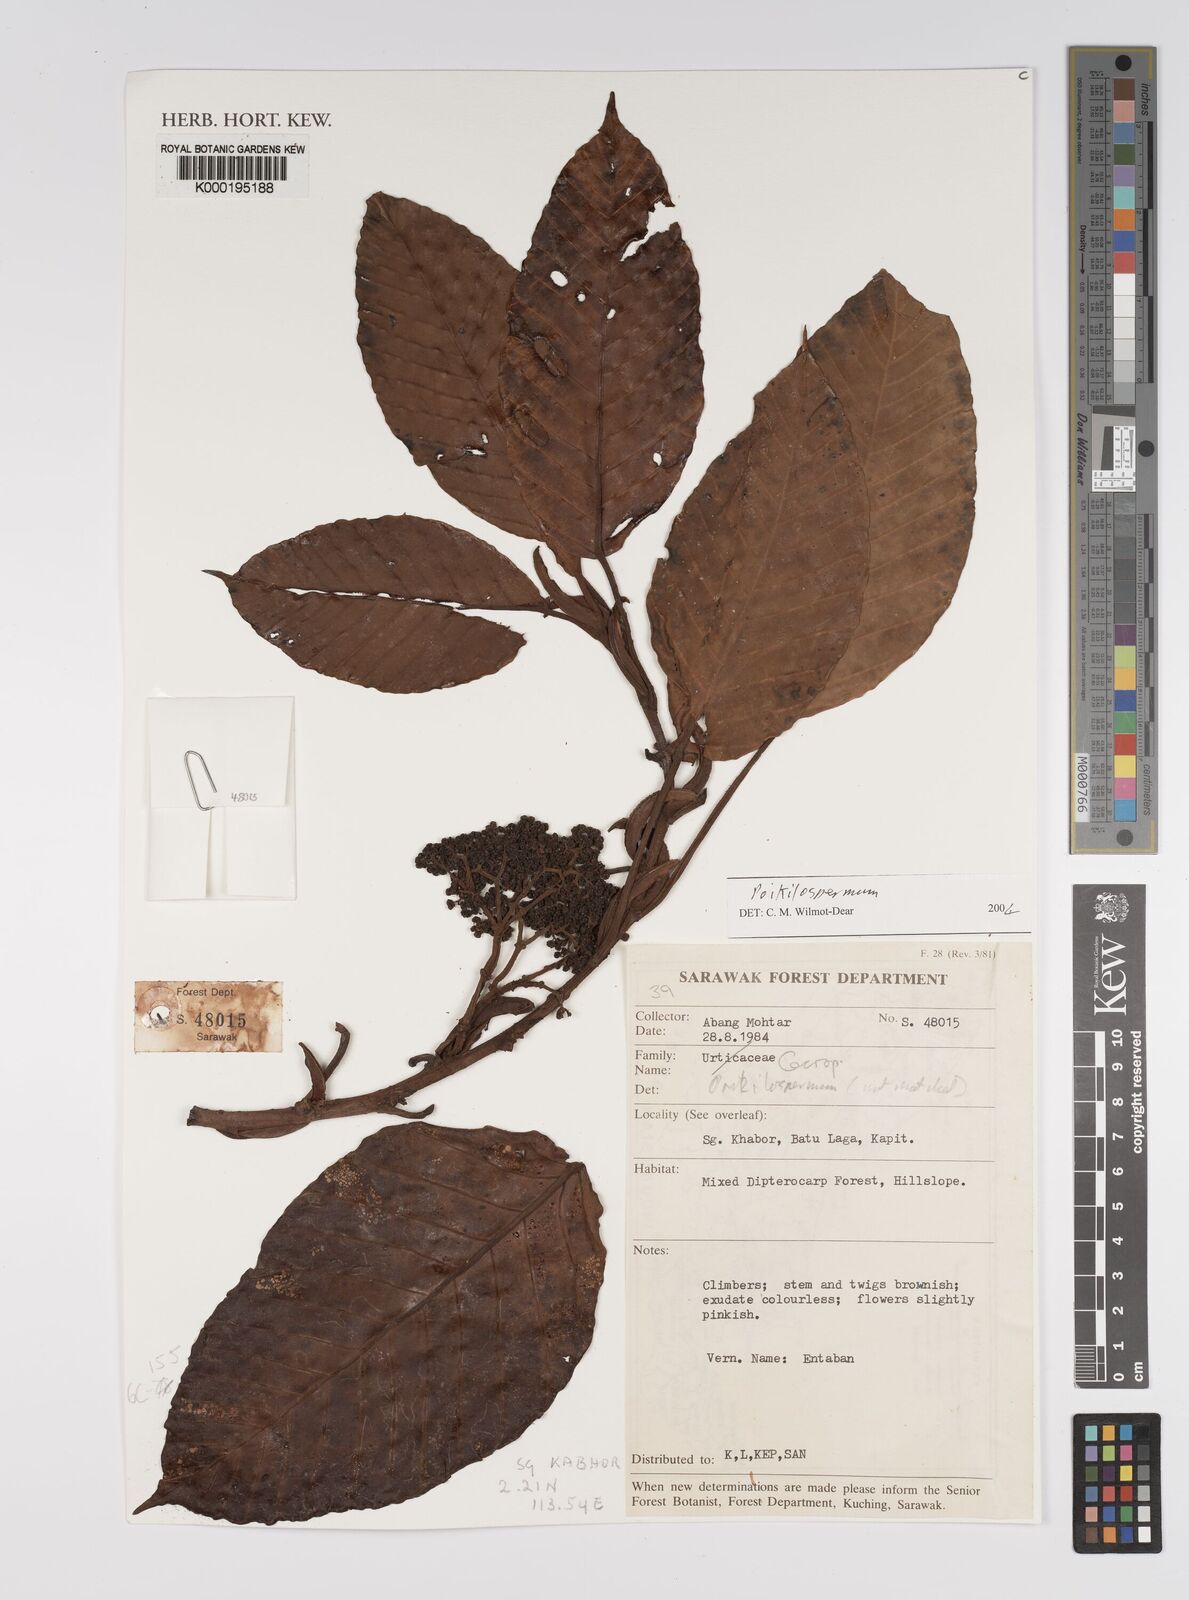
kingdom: Plantae
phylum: Tracheophyta
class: Magnoliopsida
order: Rosales
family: Urticaceae
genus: Poikilospermum
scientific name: Poikilospermum
